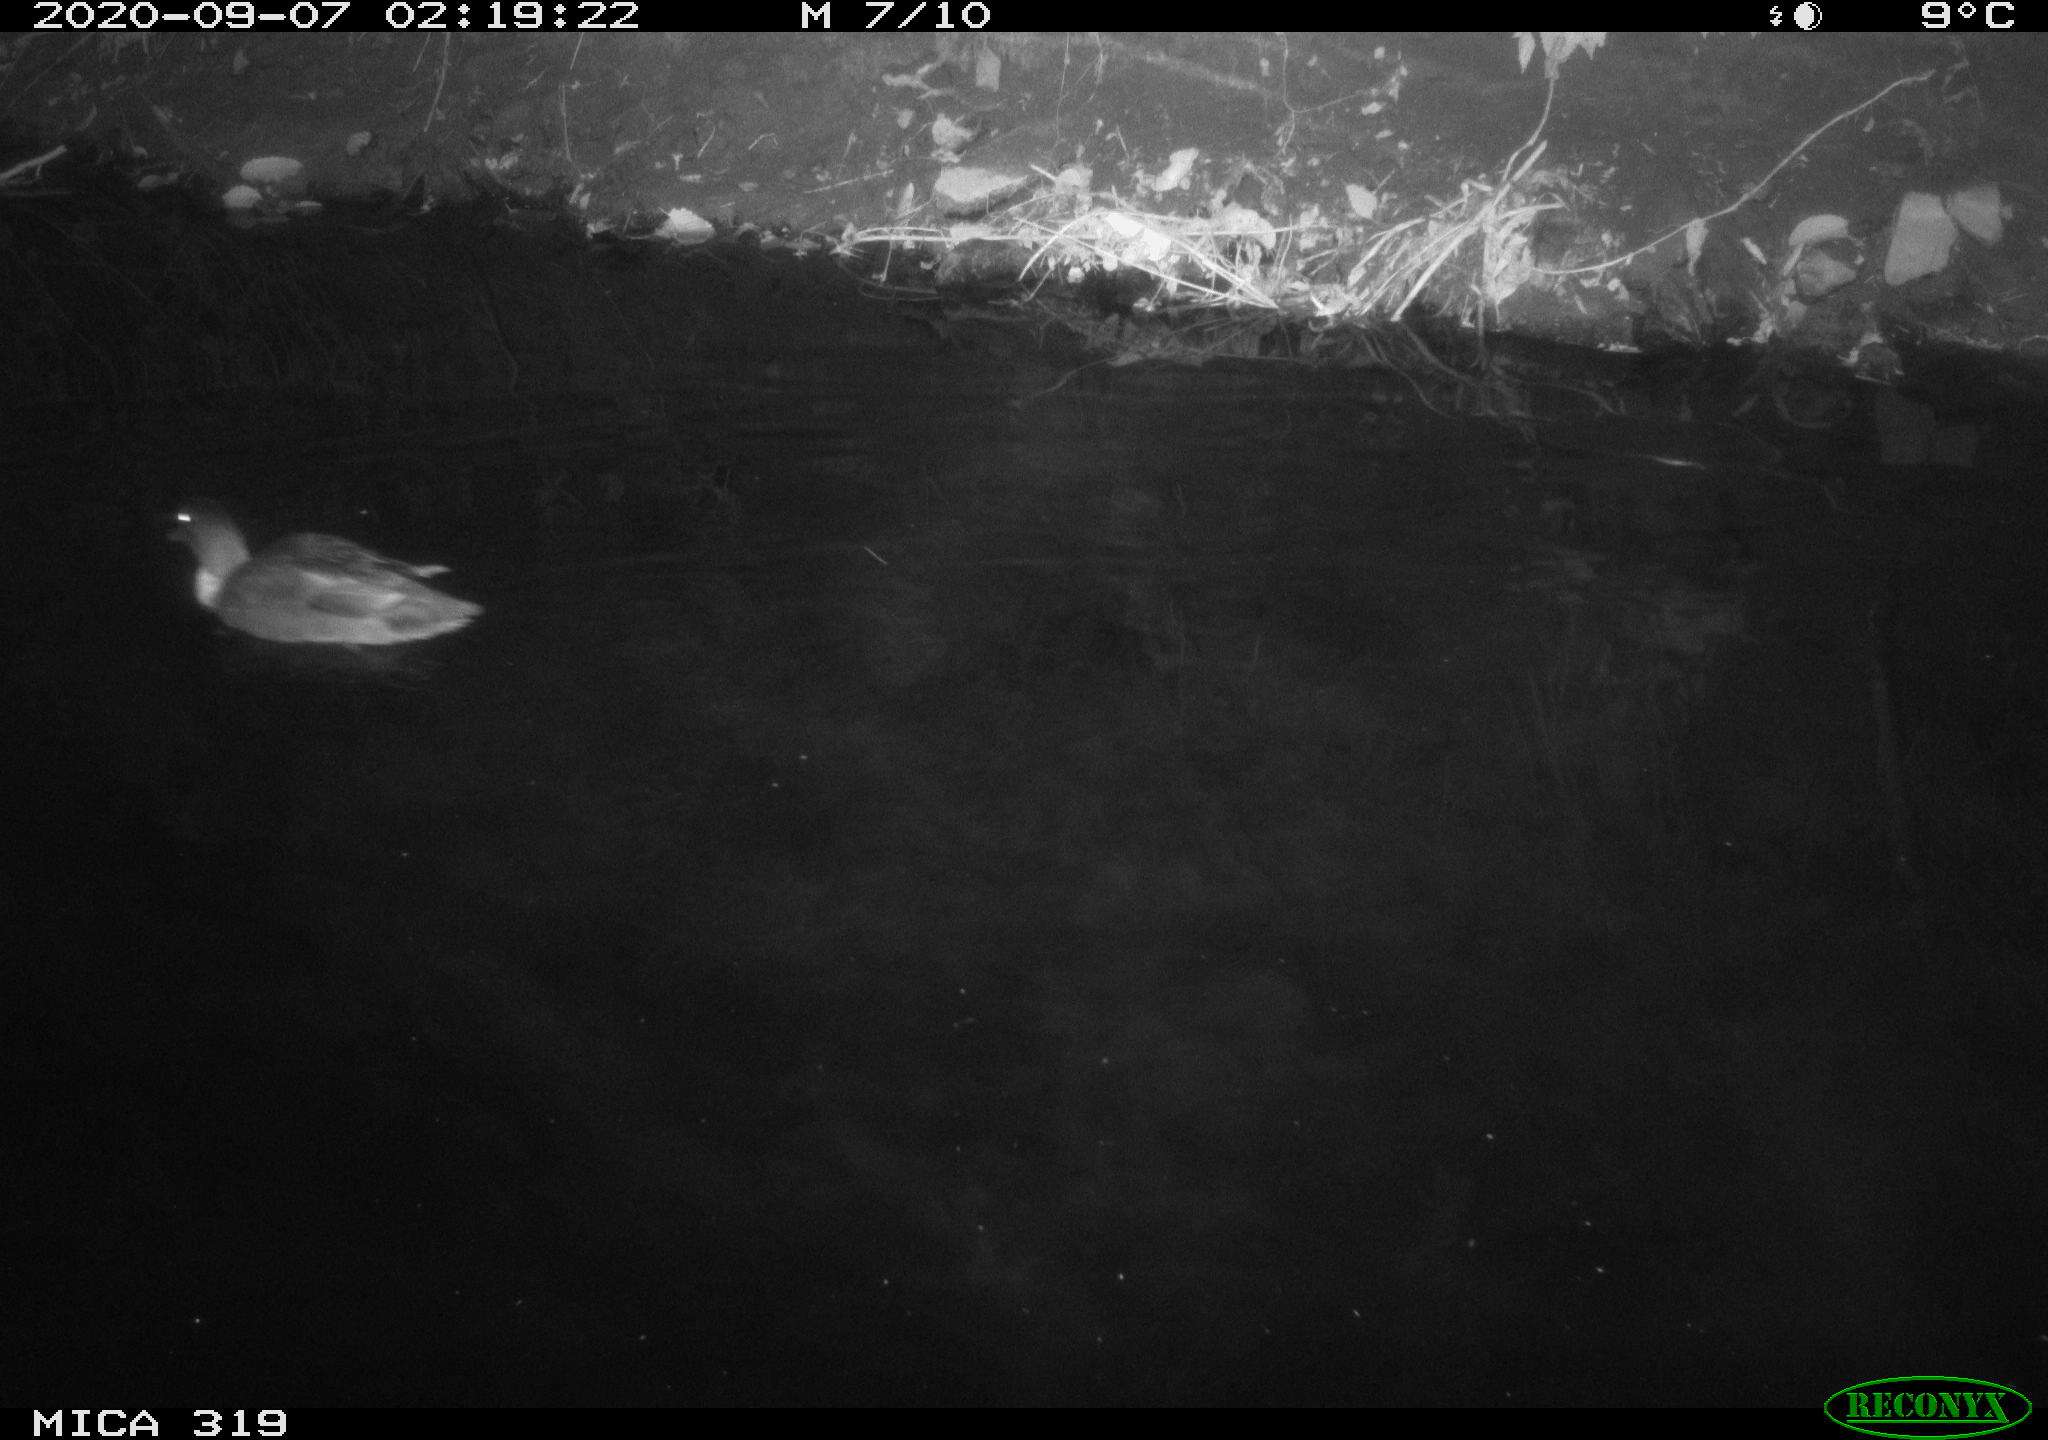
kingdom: Animalia
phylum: Chordata
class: Aves
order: Anseriformes
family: Anatidae
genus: Anas
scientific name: Anas platyrhynchos
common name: Mallard
